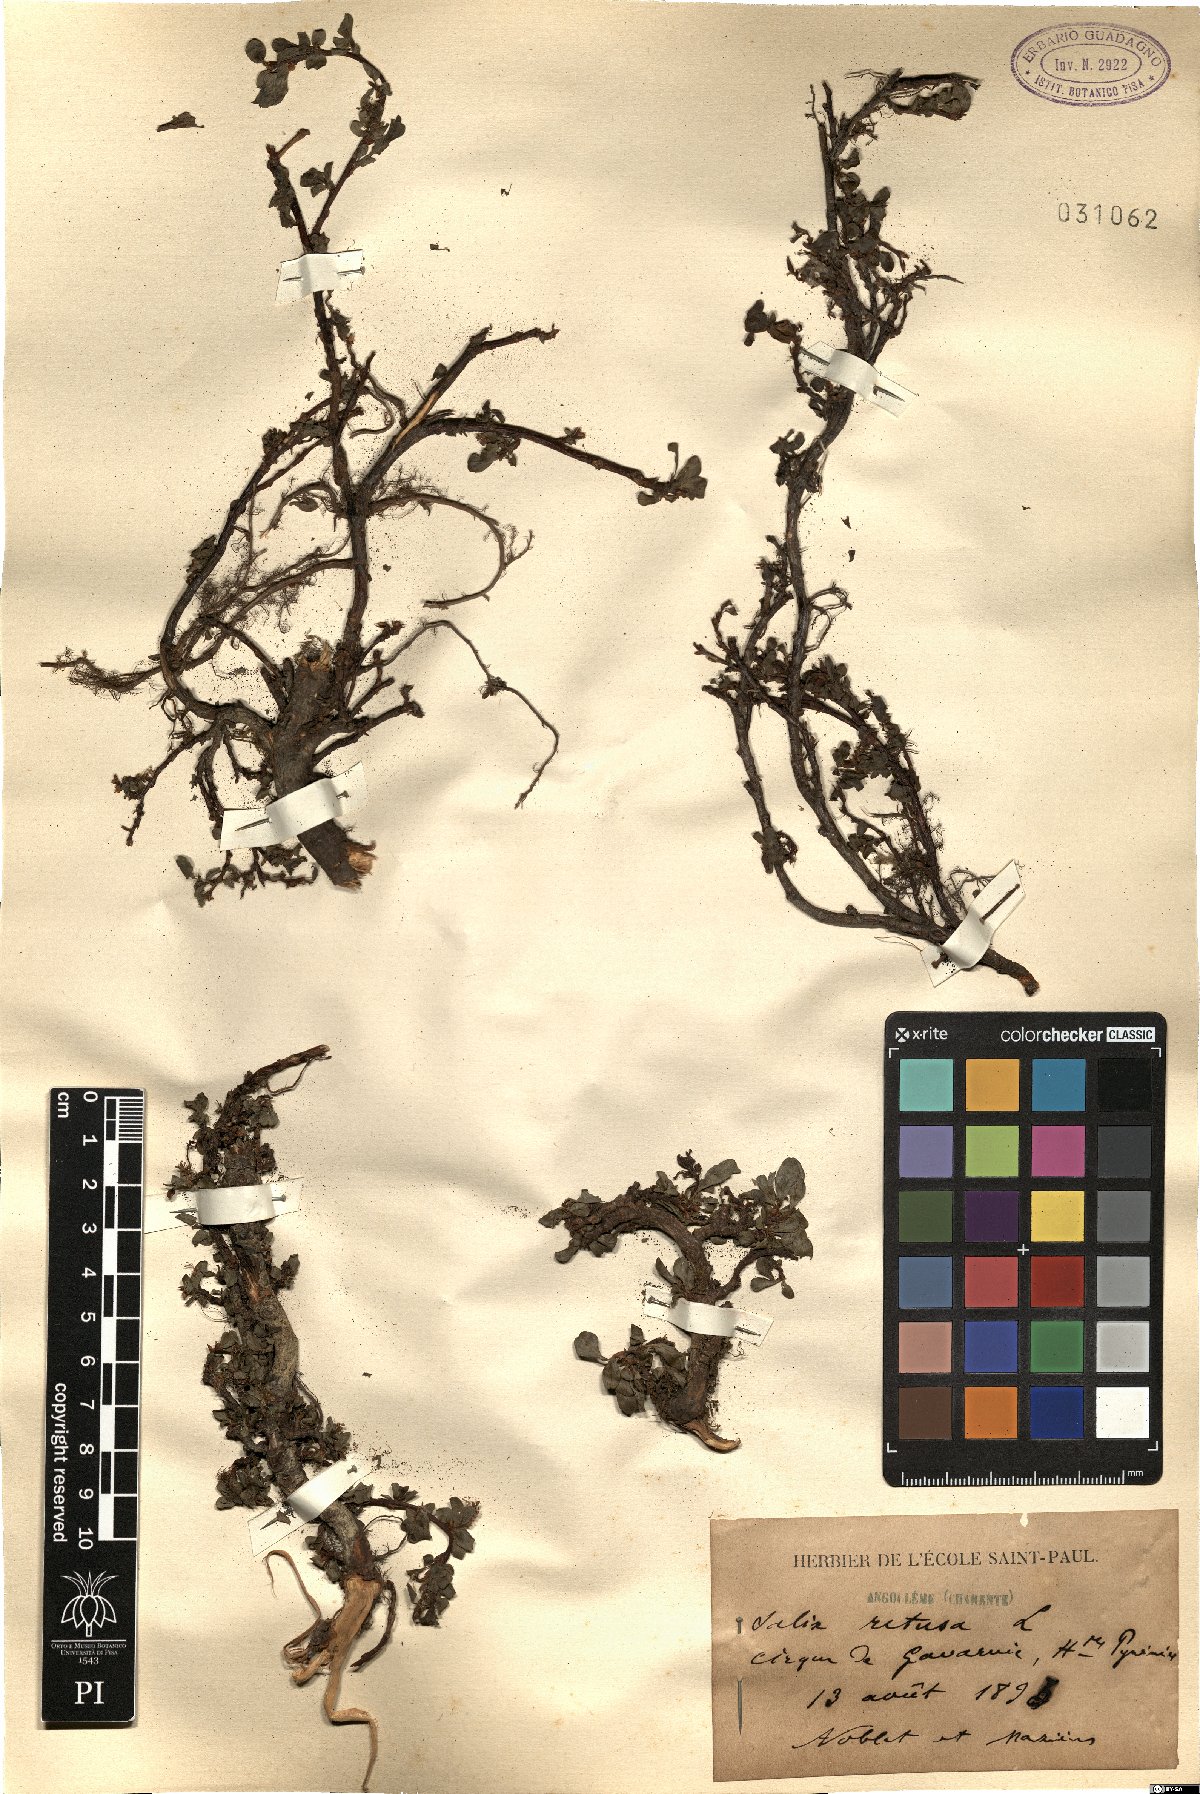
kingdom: Plantae
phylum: Tracheophyta
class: Magnoliopsida
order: Malpighiales
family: Salicaceae
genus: Salix
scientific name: Salix retusa
